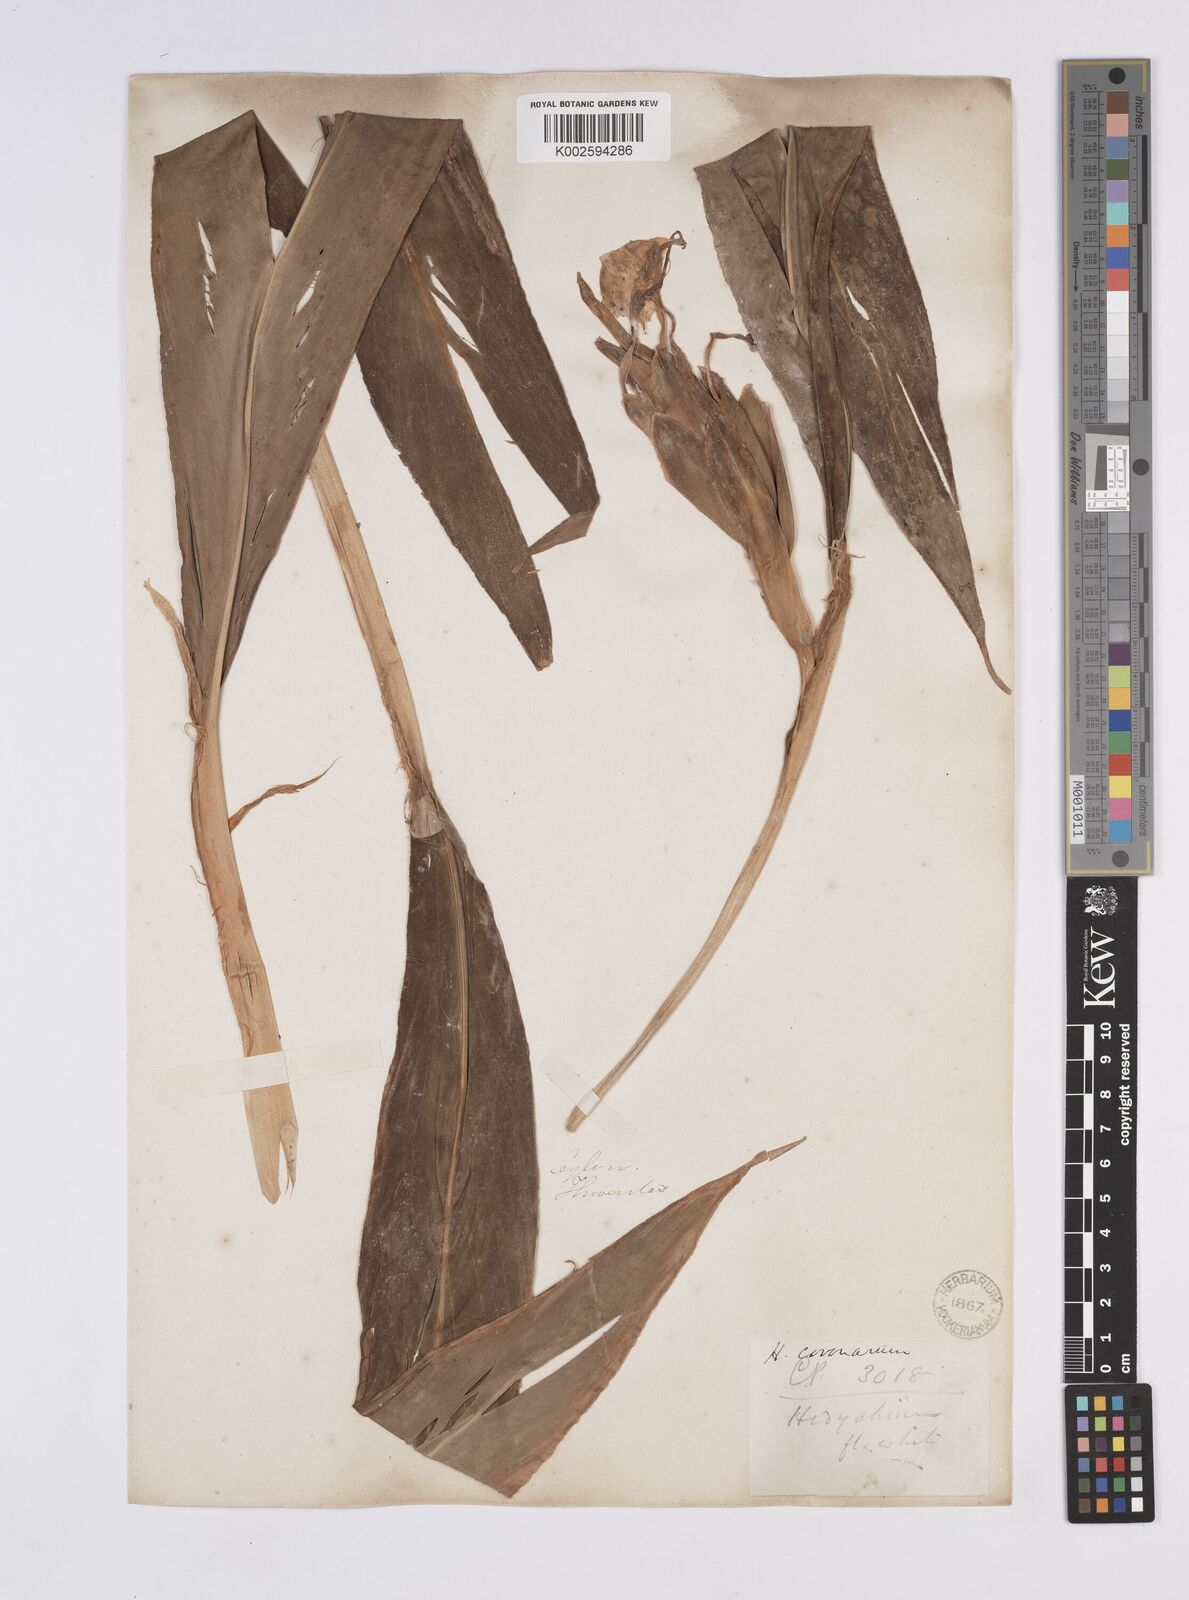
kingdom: Plantae
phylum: Tracheophyta
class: Liliopsida
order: Zingiberales
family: Zingiberaceae
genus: Hedychium
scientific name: Hedychium coronarium
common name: White garland-lily
